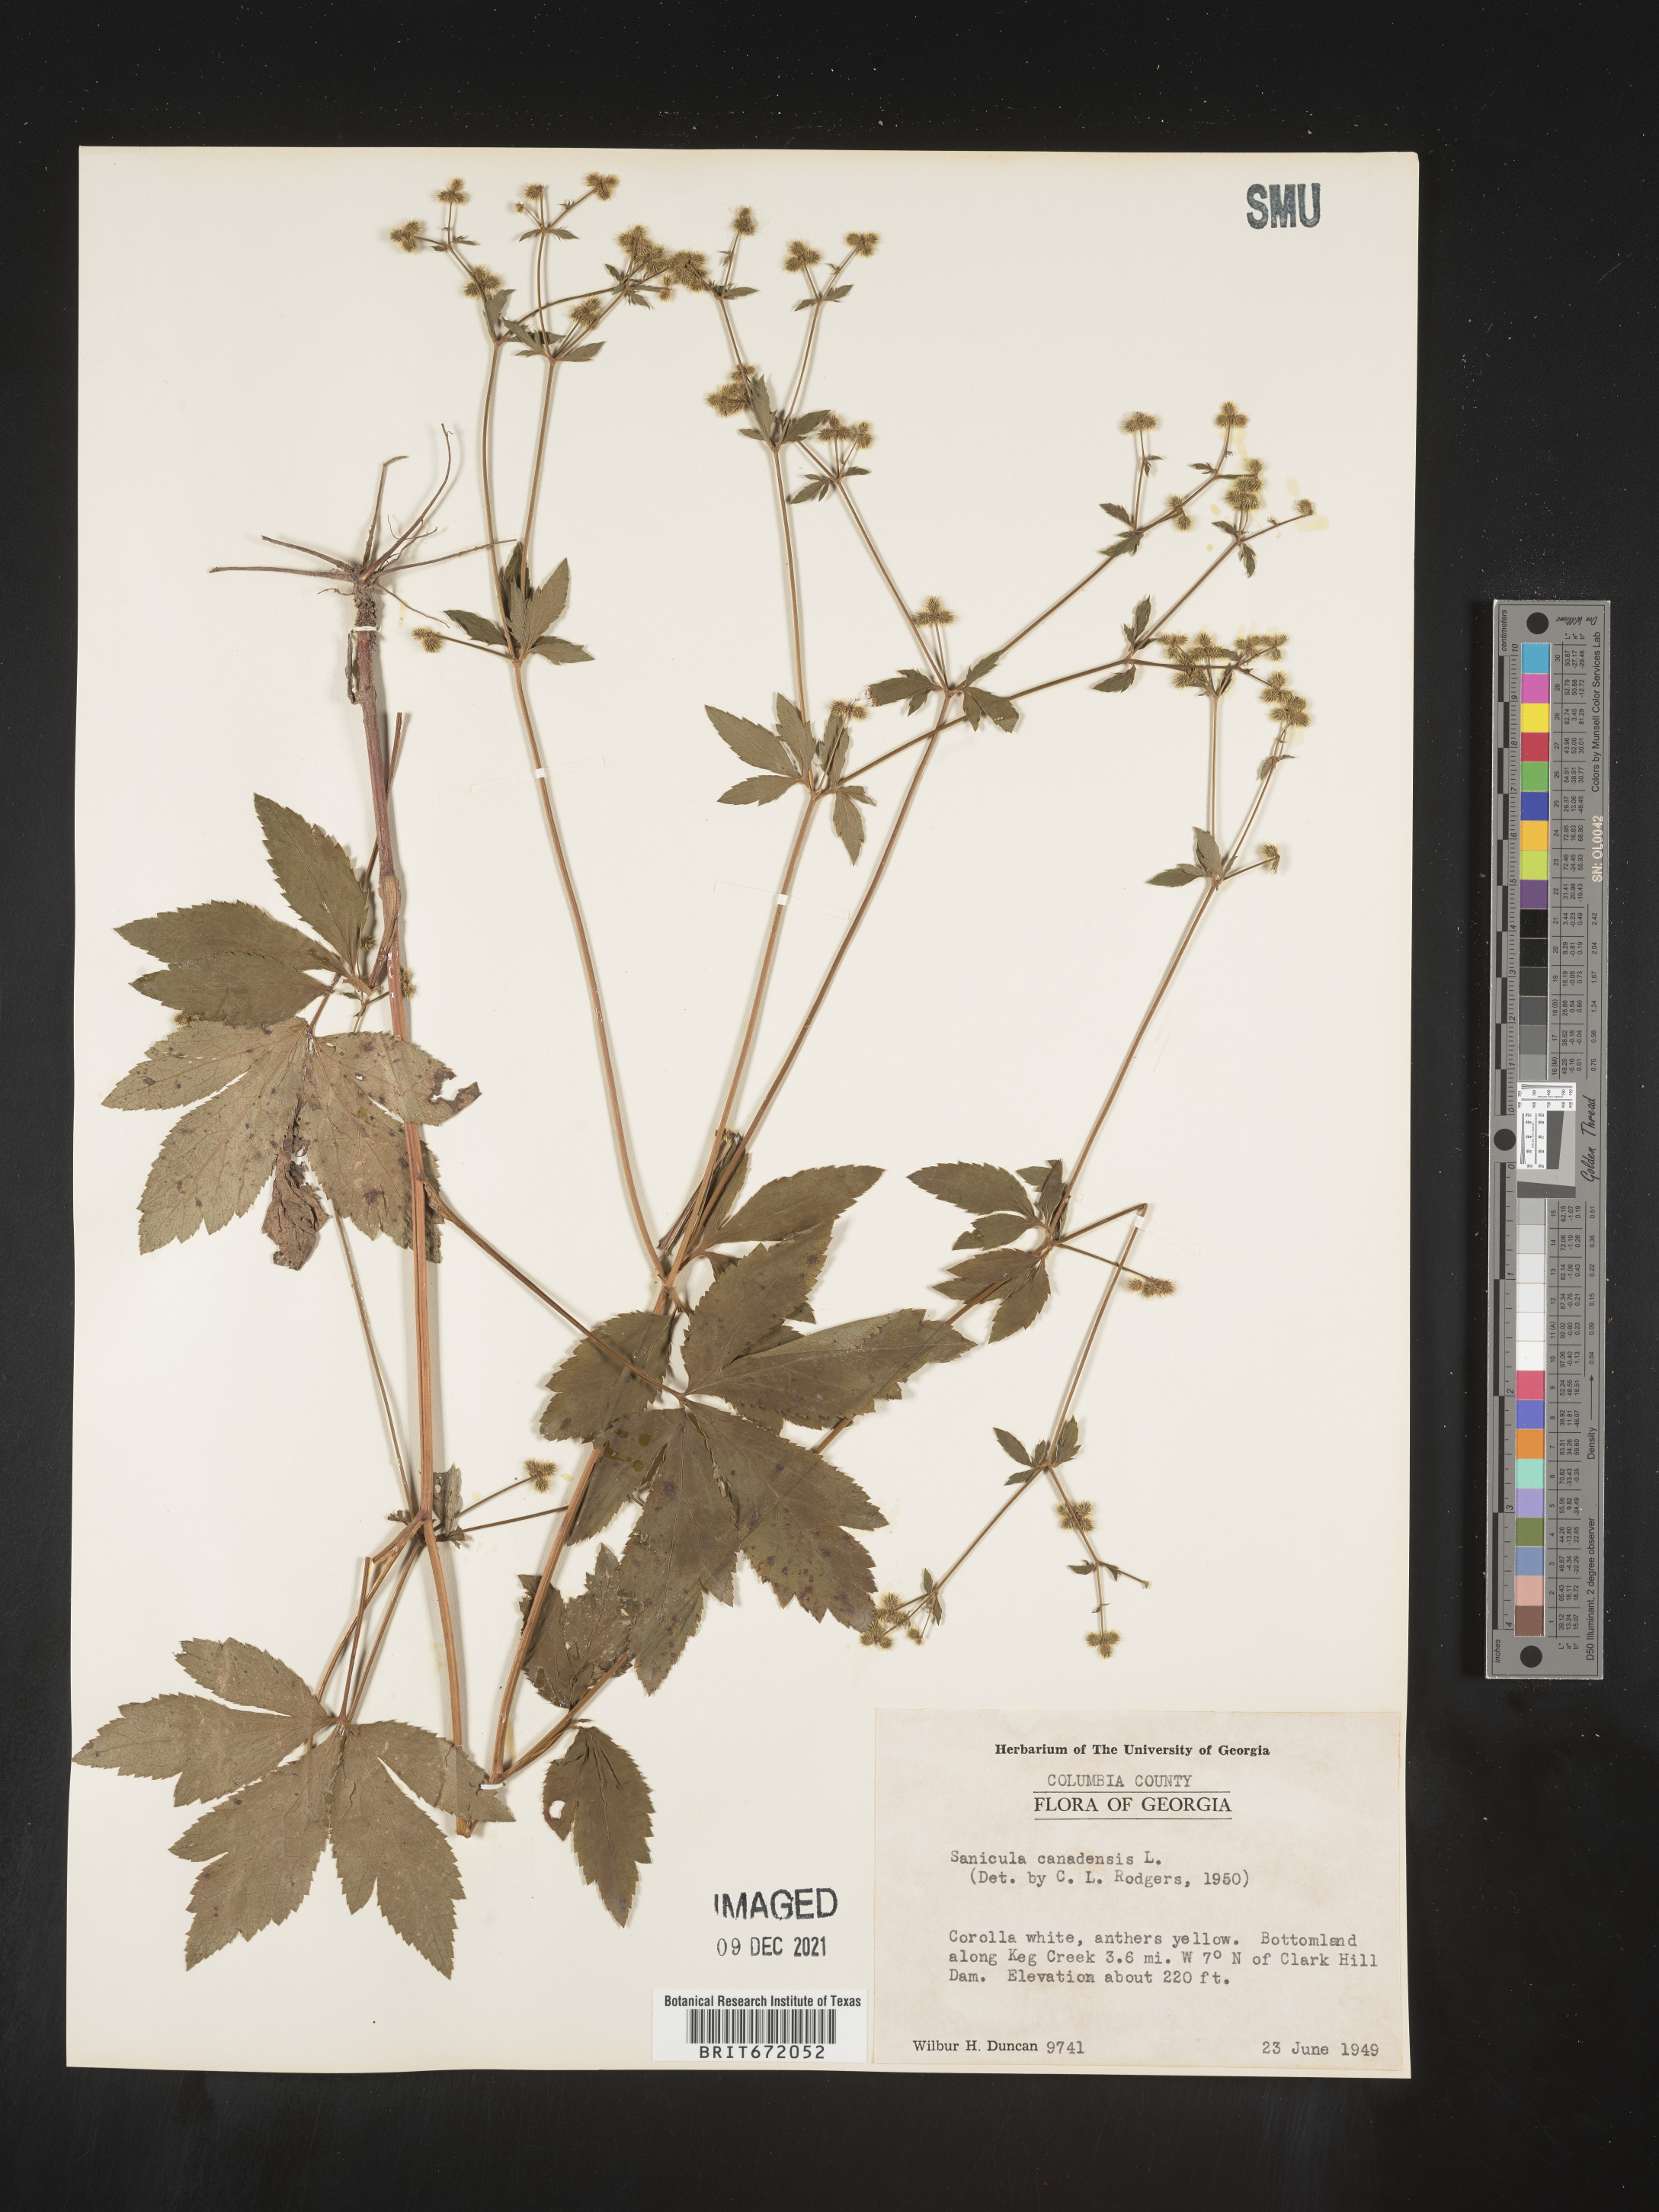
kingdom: Plantae
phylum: Tracheophyta
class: Magnoliopsida
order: Apiales
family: Apiaceae
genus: Sanicula
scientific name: Sanicula canadensis
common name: Canada sanicle
